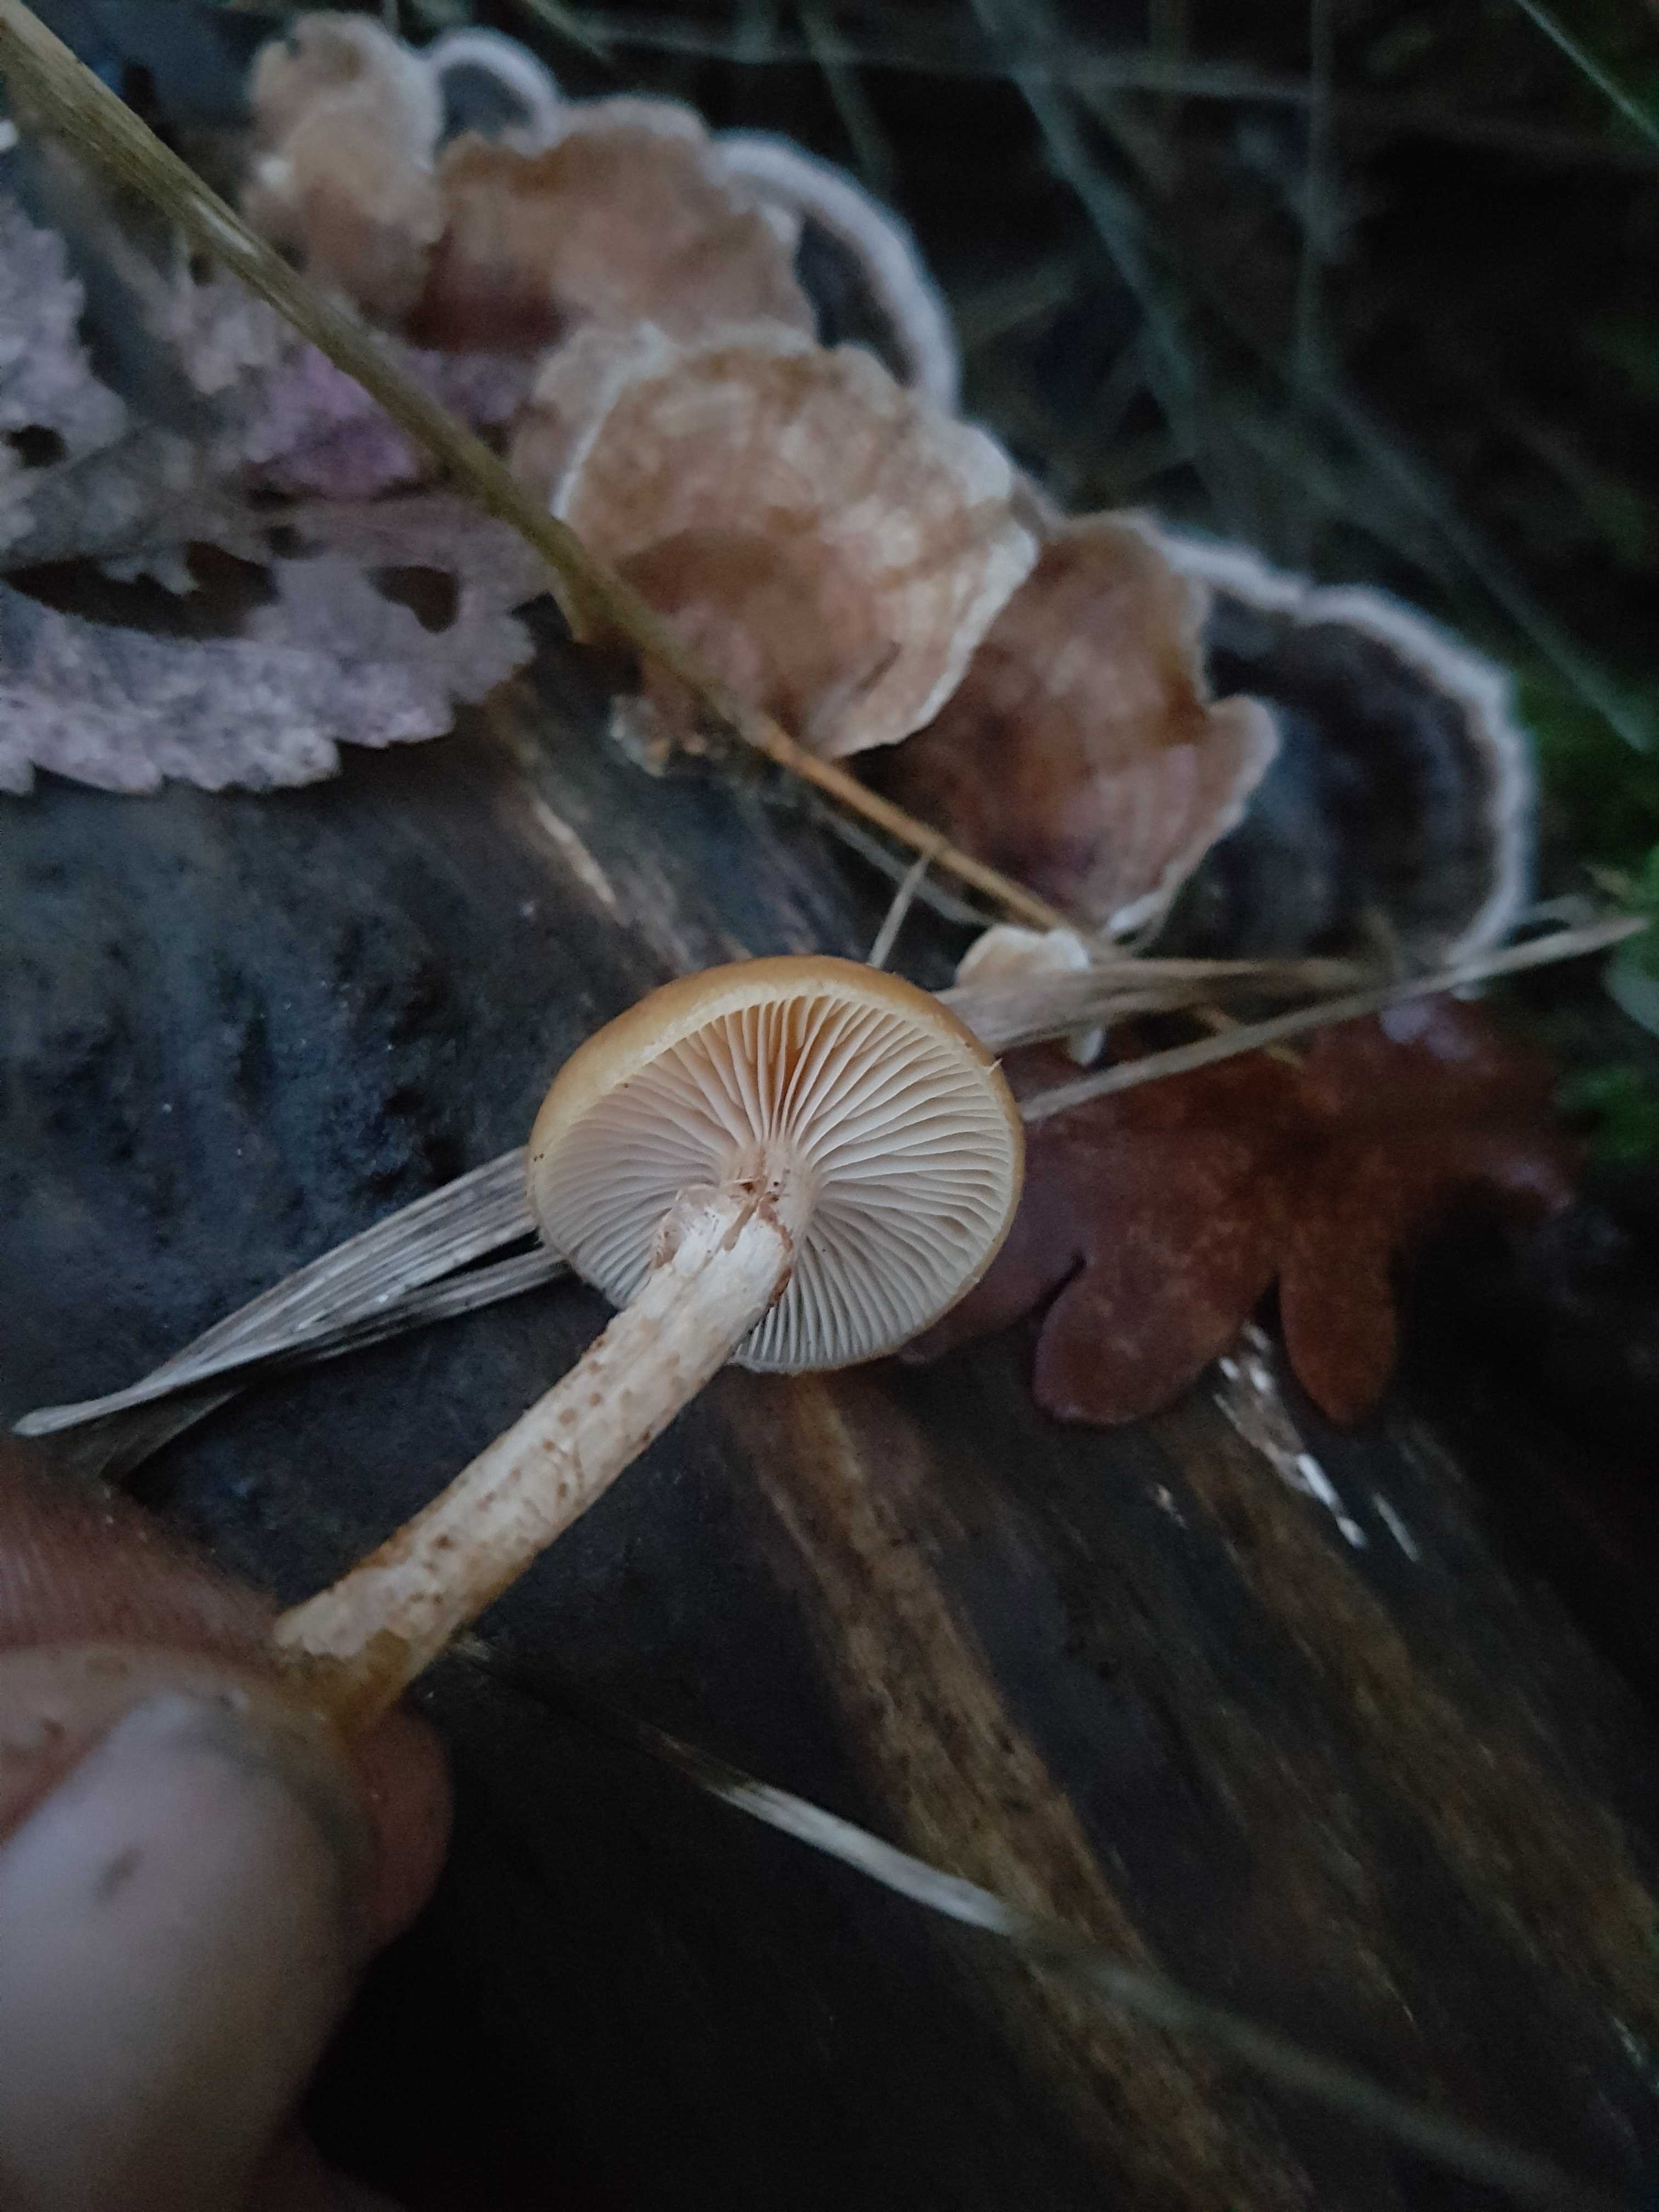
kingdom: Fungi
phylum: Basidiomycota
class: Agaricomycetes
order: Agaricales
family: Strophariaceae
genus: Kuehneromyces
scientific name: Kuehneromyces mutabilis
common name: foranderlig skælhat
